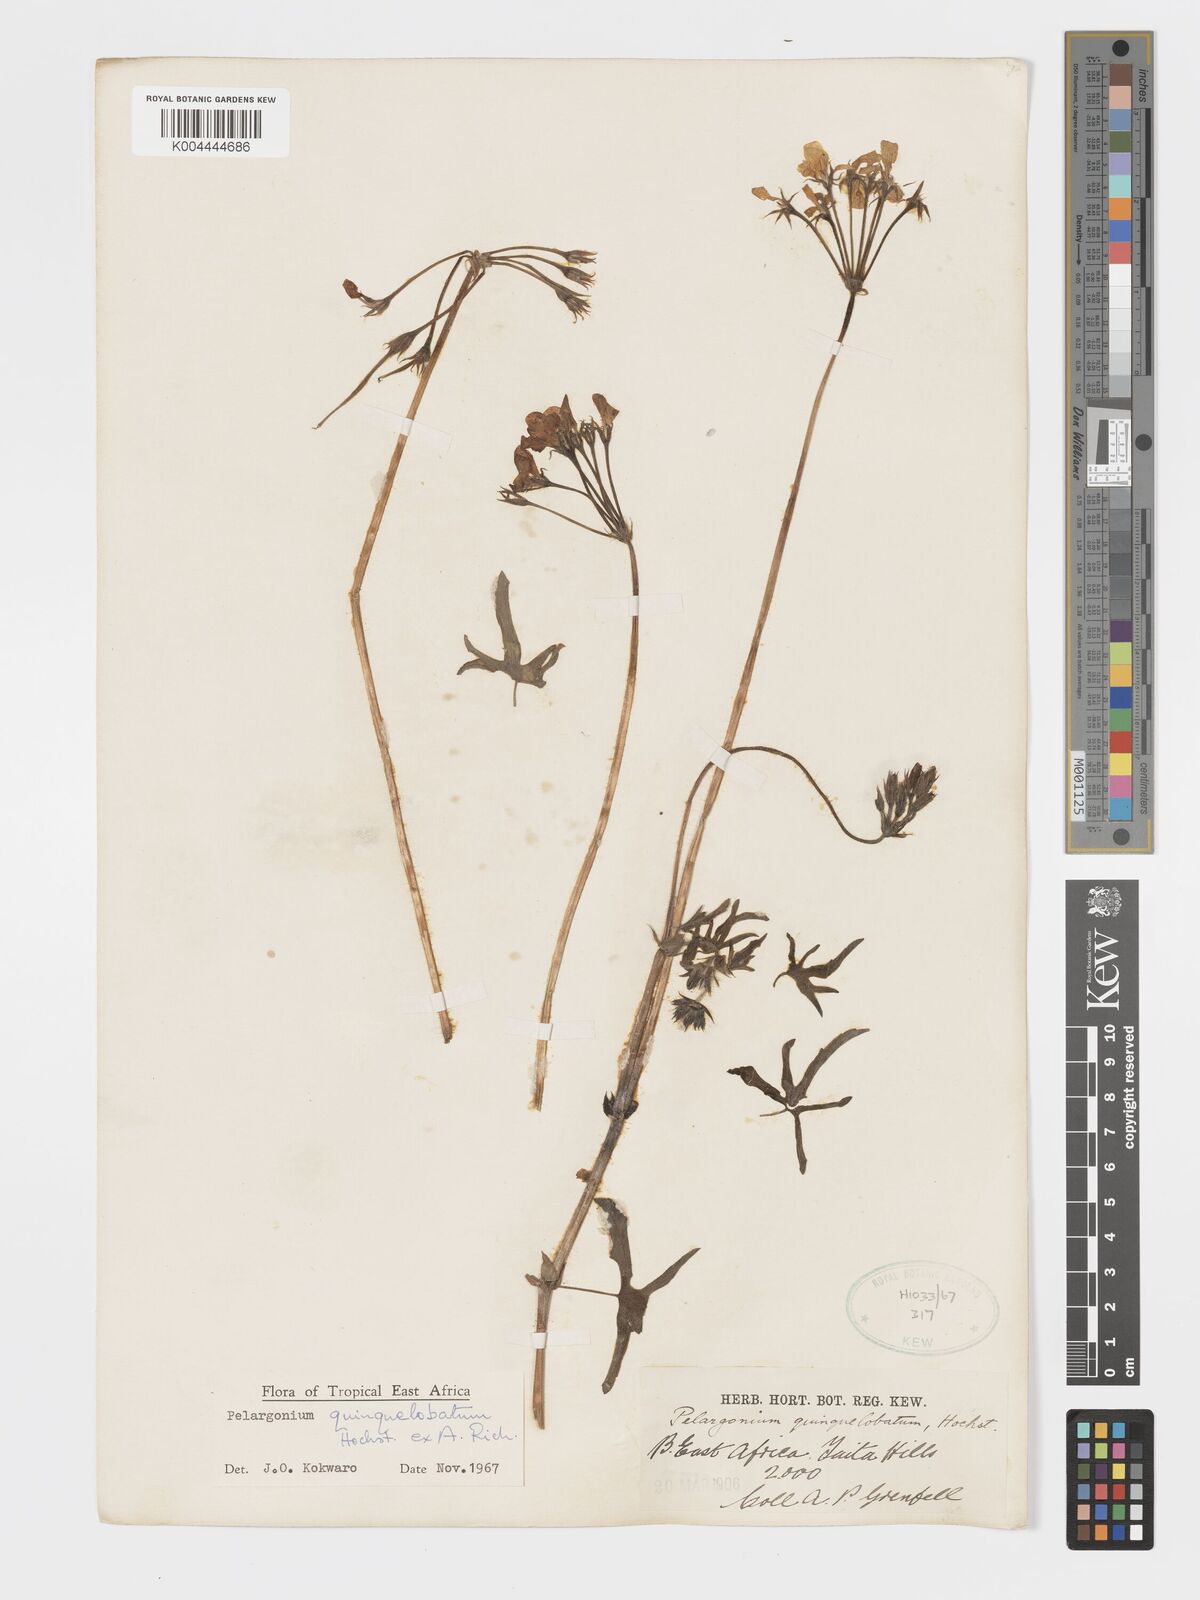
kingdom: Plantae
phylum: Tracheophyta
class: Magnoliopsida
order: Geraniales
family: Geraniaceae
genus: Pelargonium
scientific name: Pelargonium quinquelobatum
